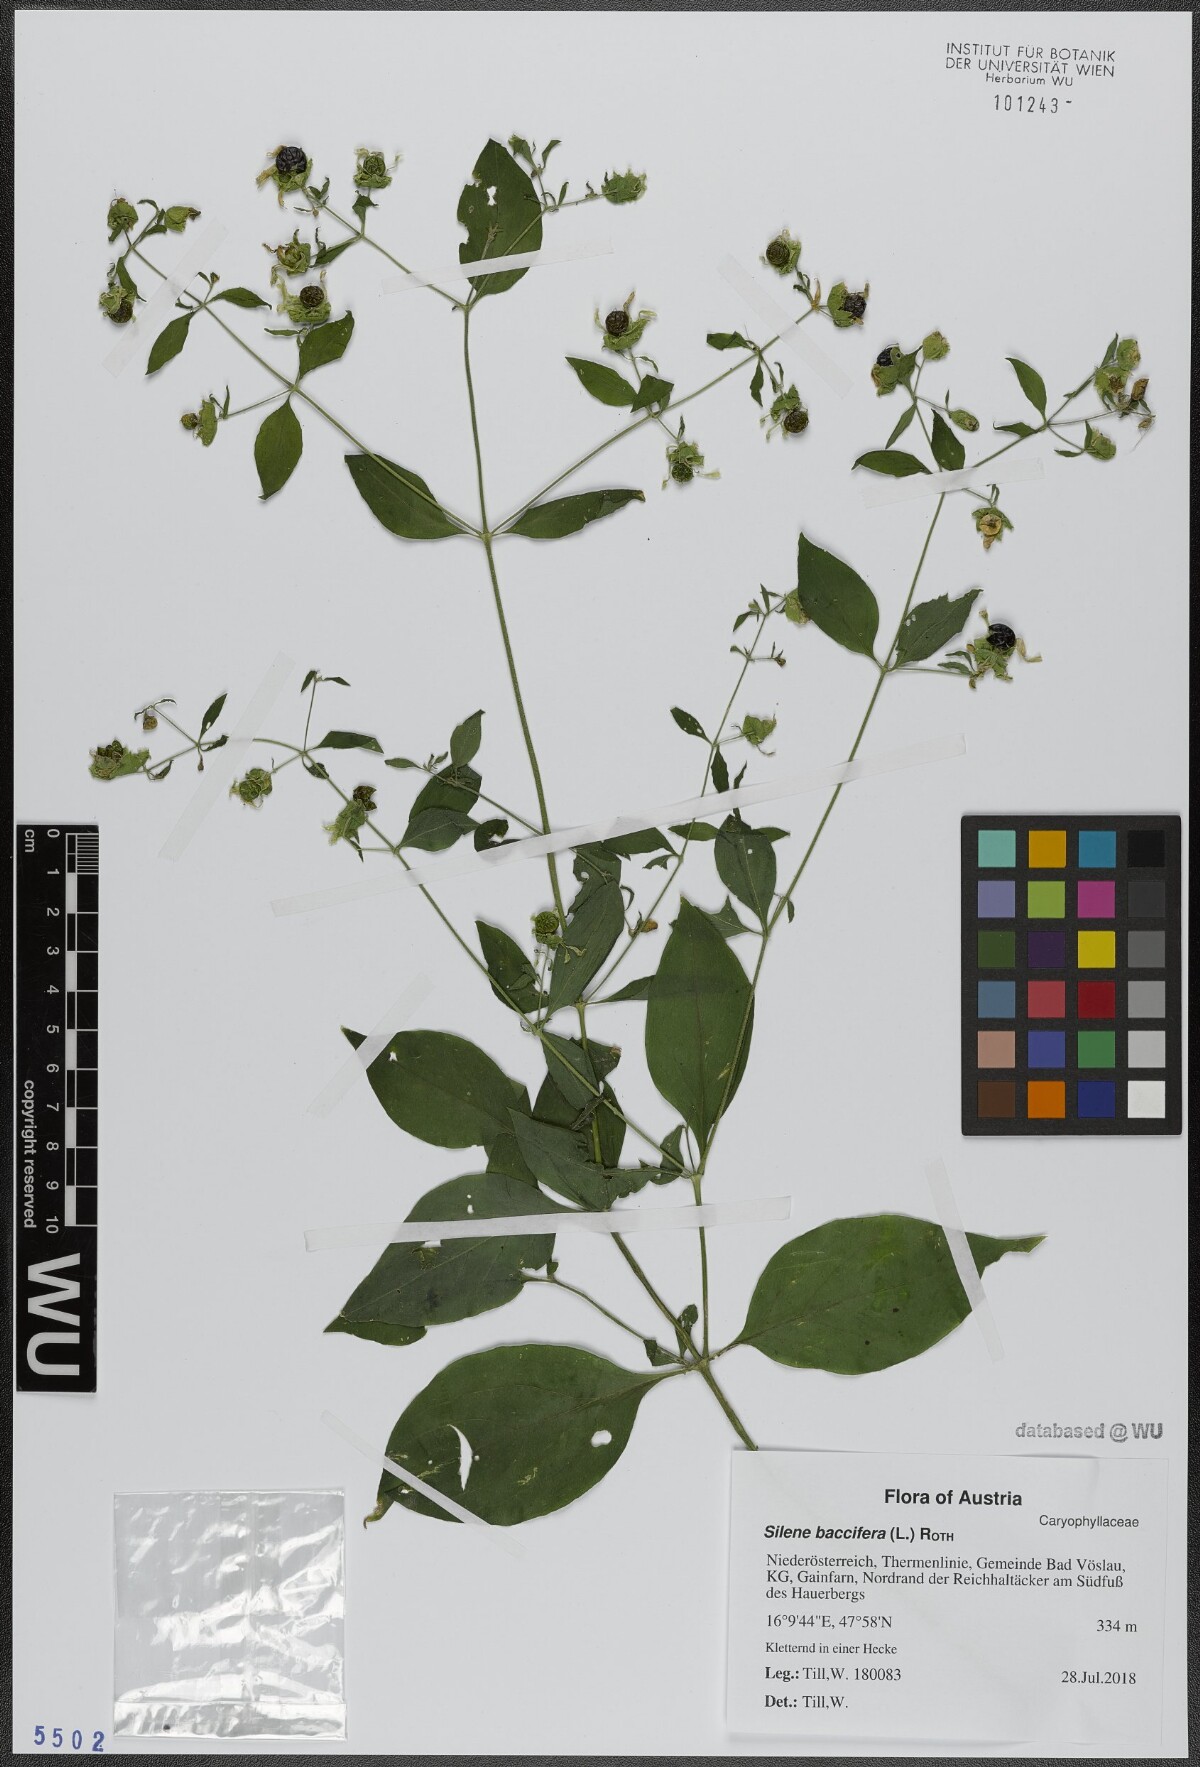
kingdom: Plantae
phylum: Tracheophyta
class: Magnoliopsida
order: Caryophyllales
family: Caryophyllaceae
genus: Silene
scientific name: Silene baccifera
